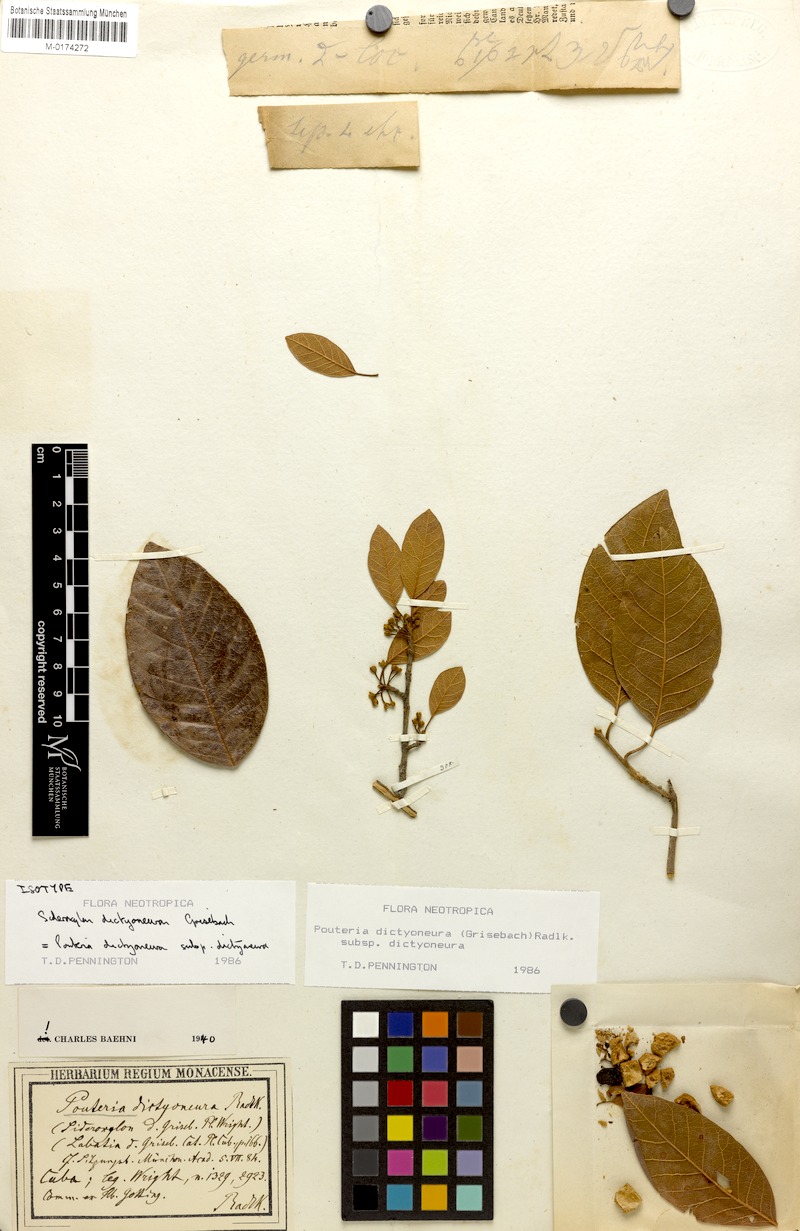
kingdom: Plantae
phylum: Tracheophyta
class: Magnoliopsida
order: Ericales
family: Sapotaceae
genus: Pouteria
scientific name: Pouteria dictyoneura
